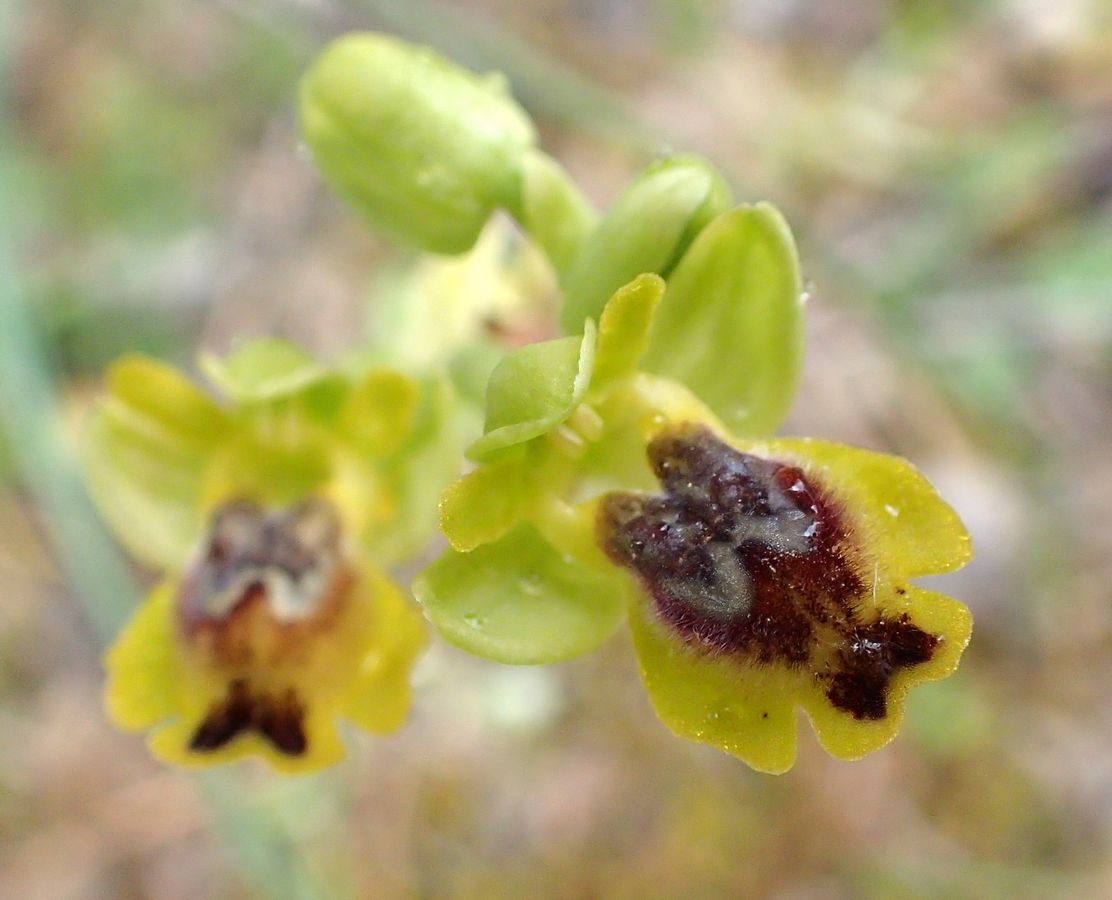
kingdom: Plantae
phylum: Tracheophyta
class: Liliopsida
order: Asparagales
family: Orchidaceae
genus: Ophrys
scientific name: Ophrys lutea
